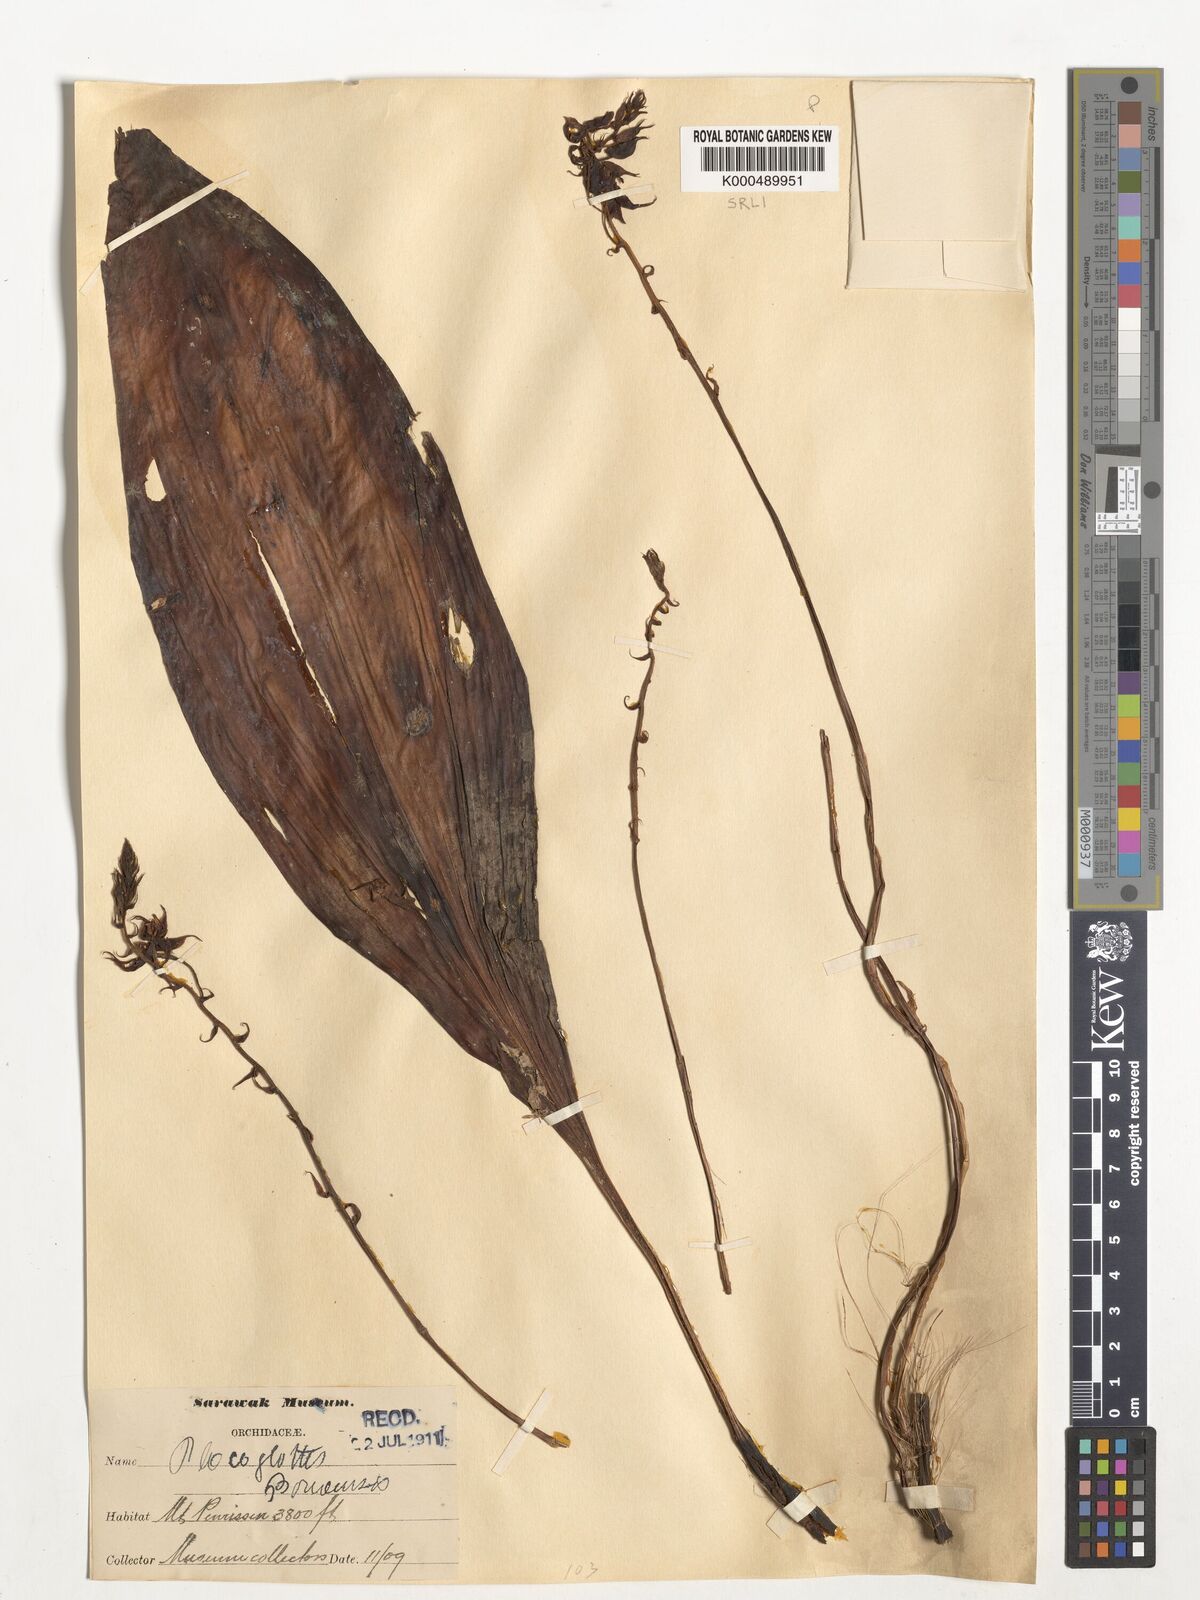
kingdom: Plantae
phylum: Tracheophyta
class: Liliopsida
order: Asparagales
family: Orchidaceae
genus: Plocoglottis
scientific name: Plocoglottis borneensis
